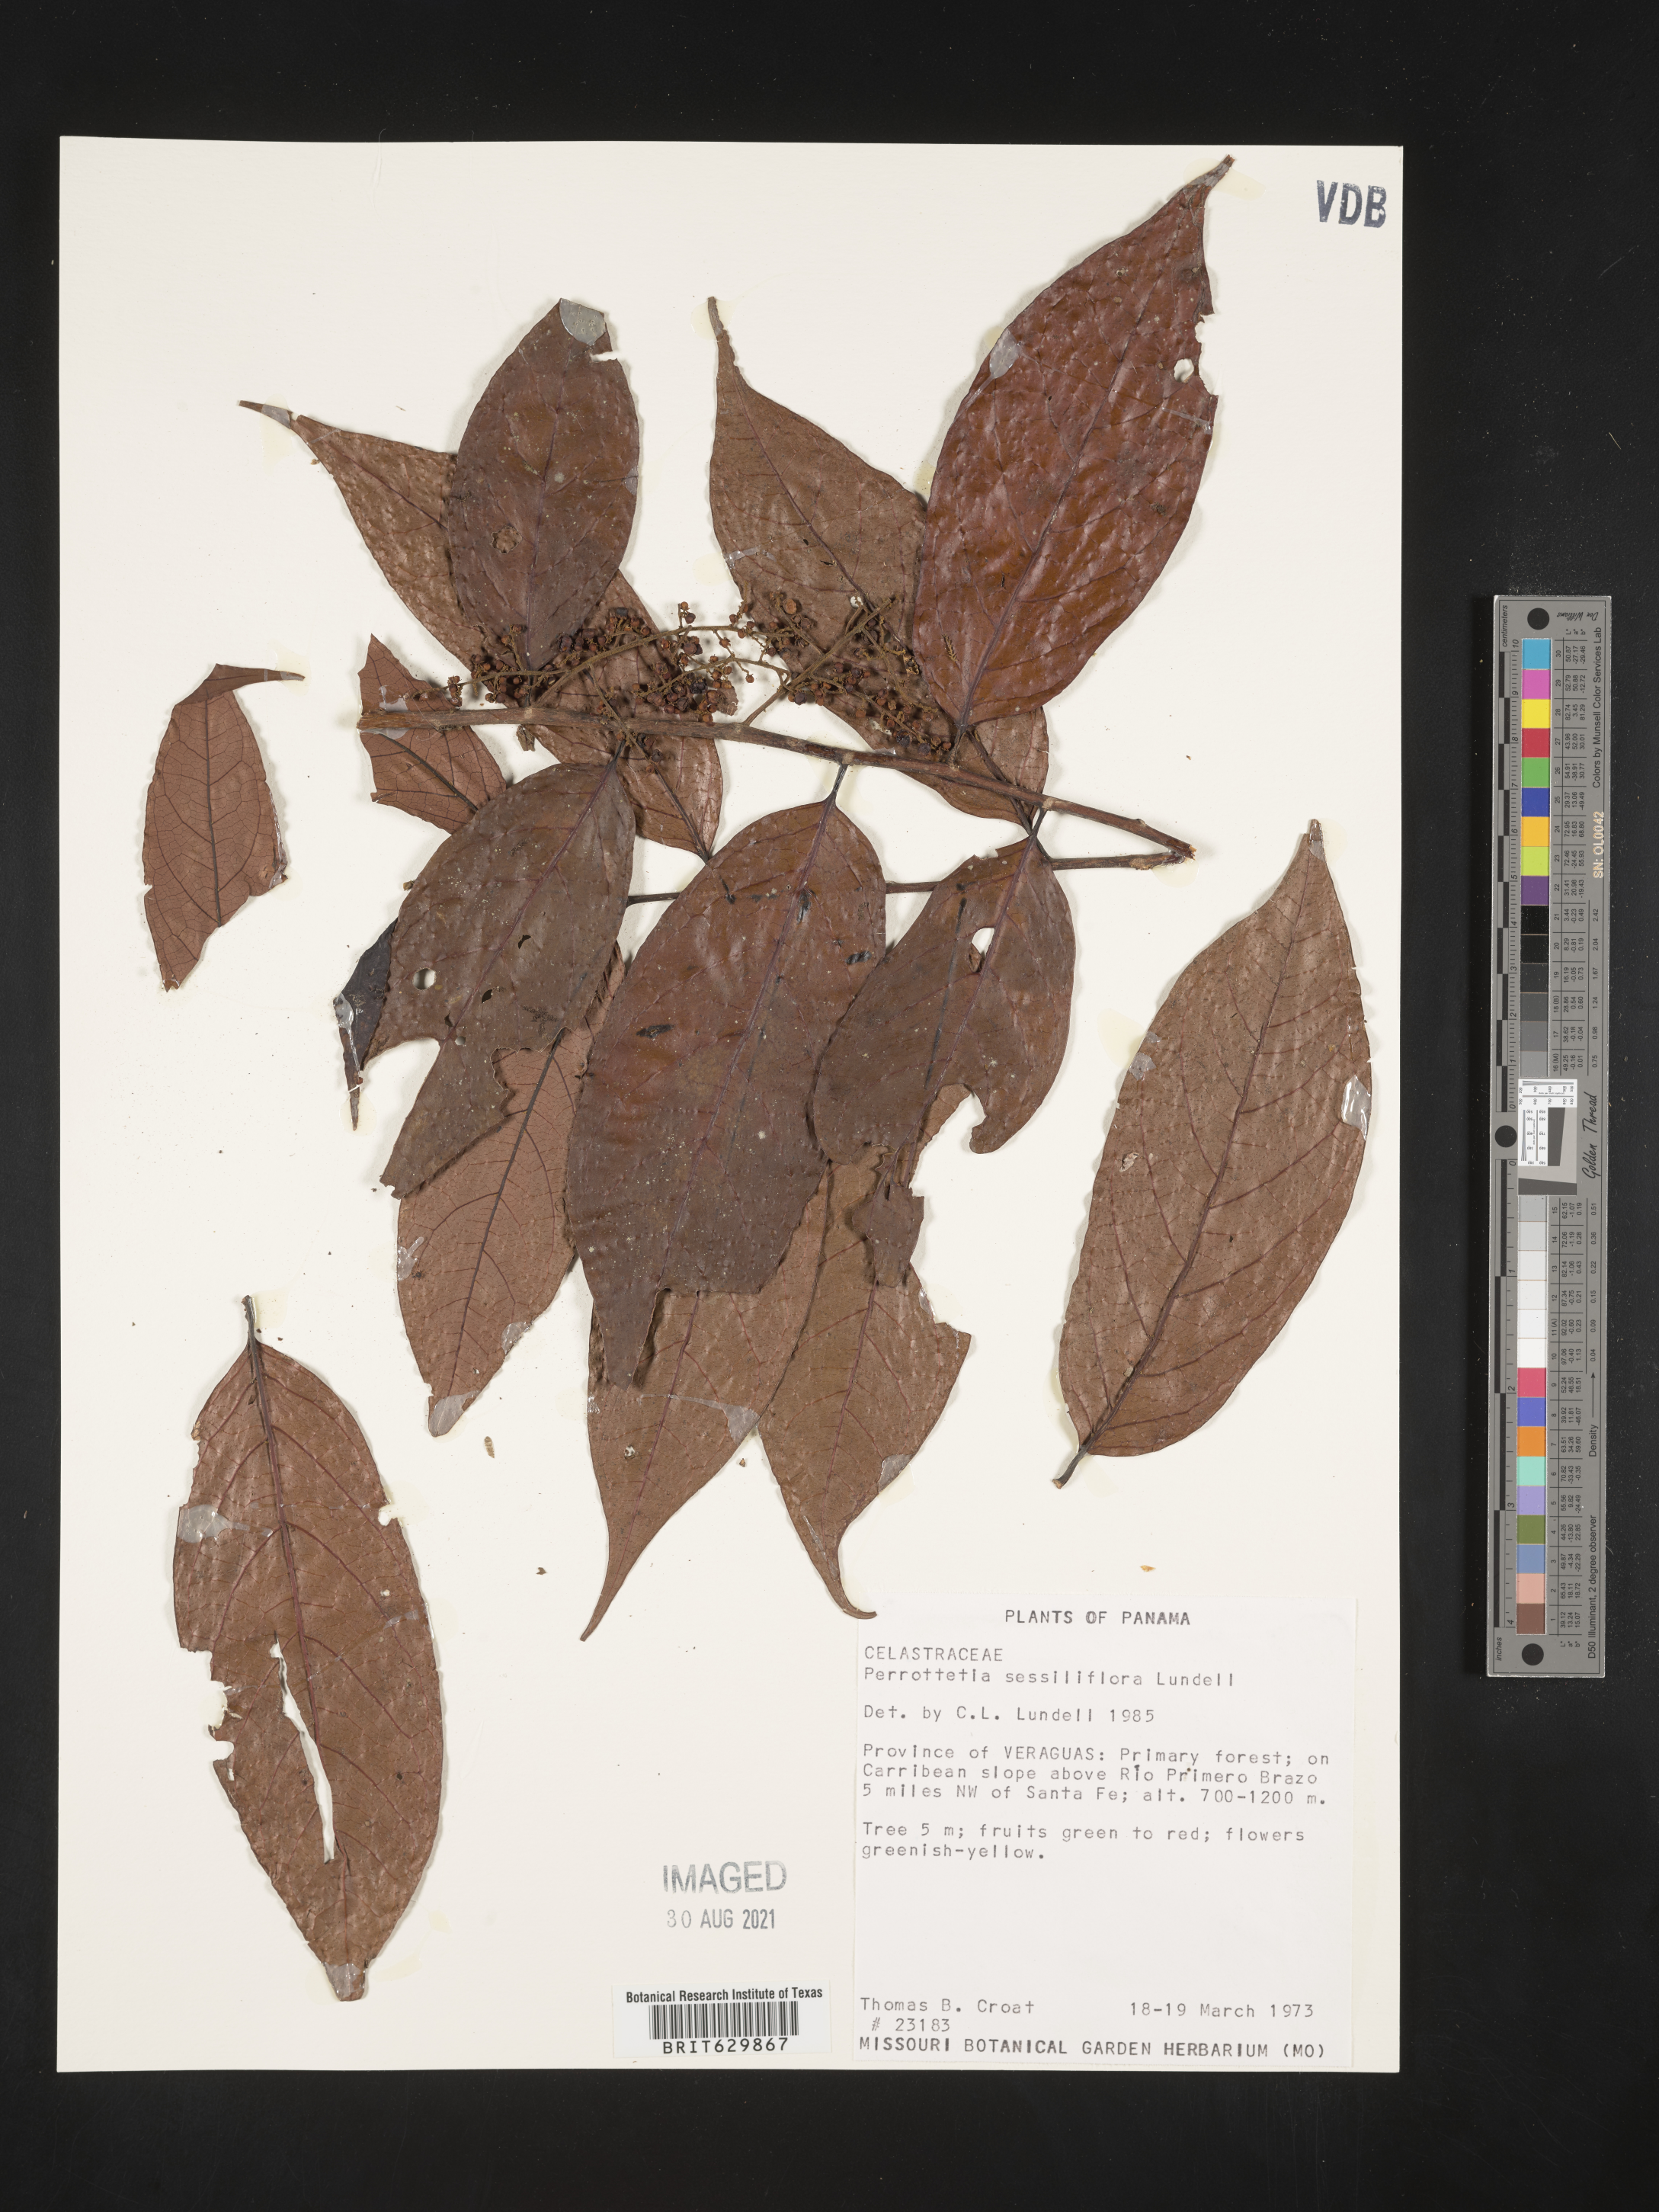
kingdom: Plantae
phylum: Tracheophyta
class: Magnoliopsida
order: Huerteales
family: Dipentodontaceae
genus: Perrottetia
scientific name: Perrottetia
